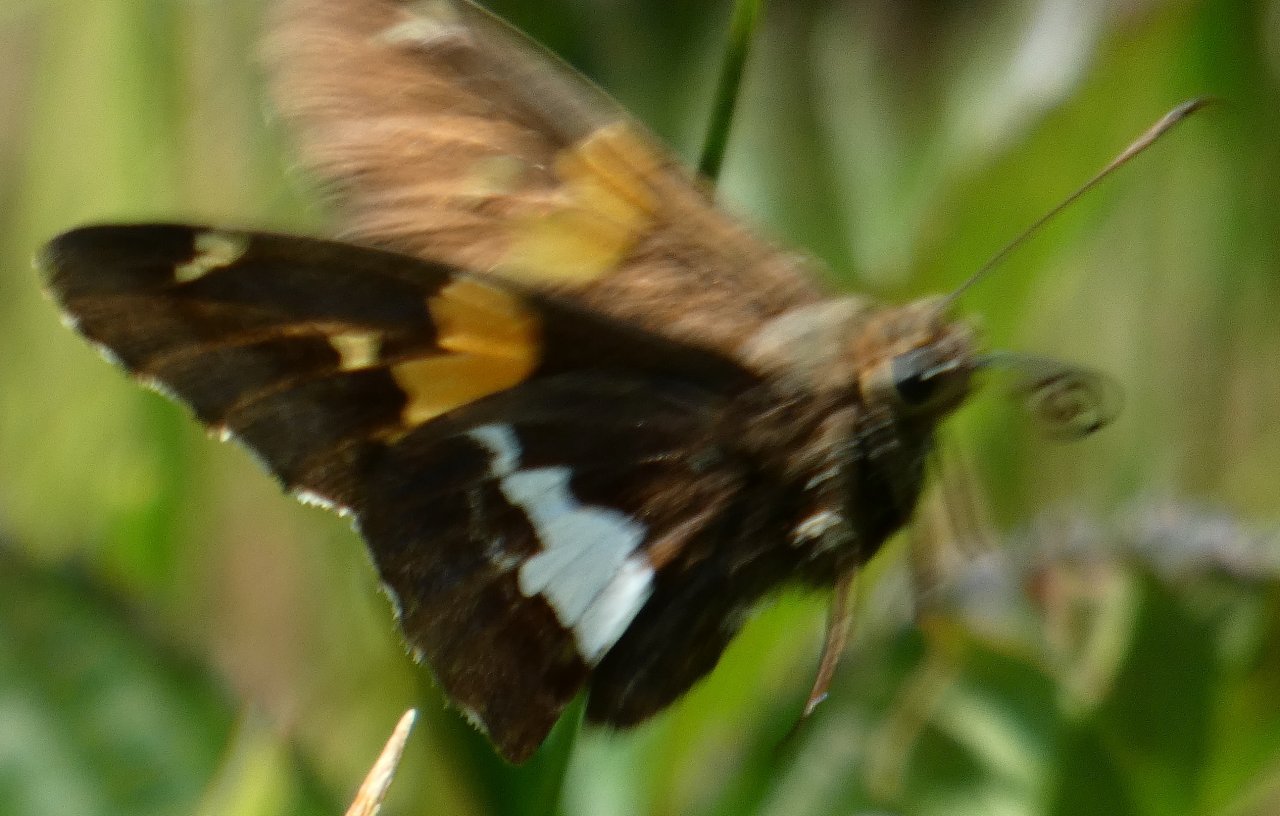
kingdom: Animalia
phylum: Arthropoda
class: Insecta
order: Lepidoptera
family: Hesperiidae
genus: Epargyreus
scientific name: Epargyreus clarus
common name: Silver-spotted Skipper
